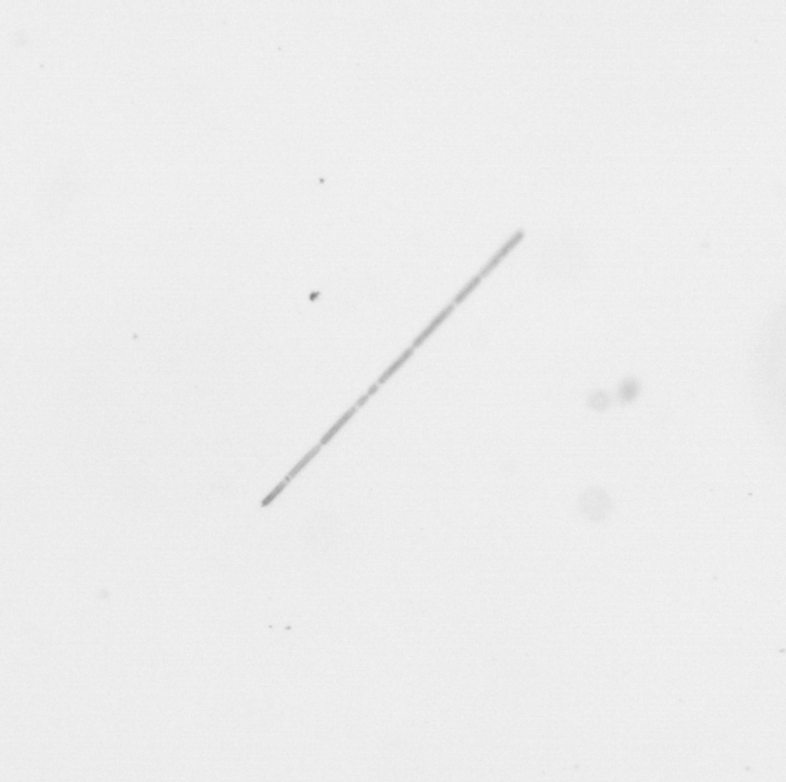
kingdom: Chromista
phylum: Ochrophyta
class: Bacillariophyceae
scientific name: Bacillariophyceae
